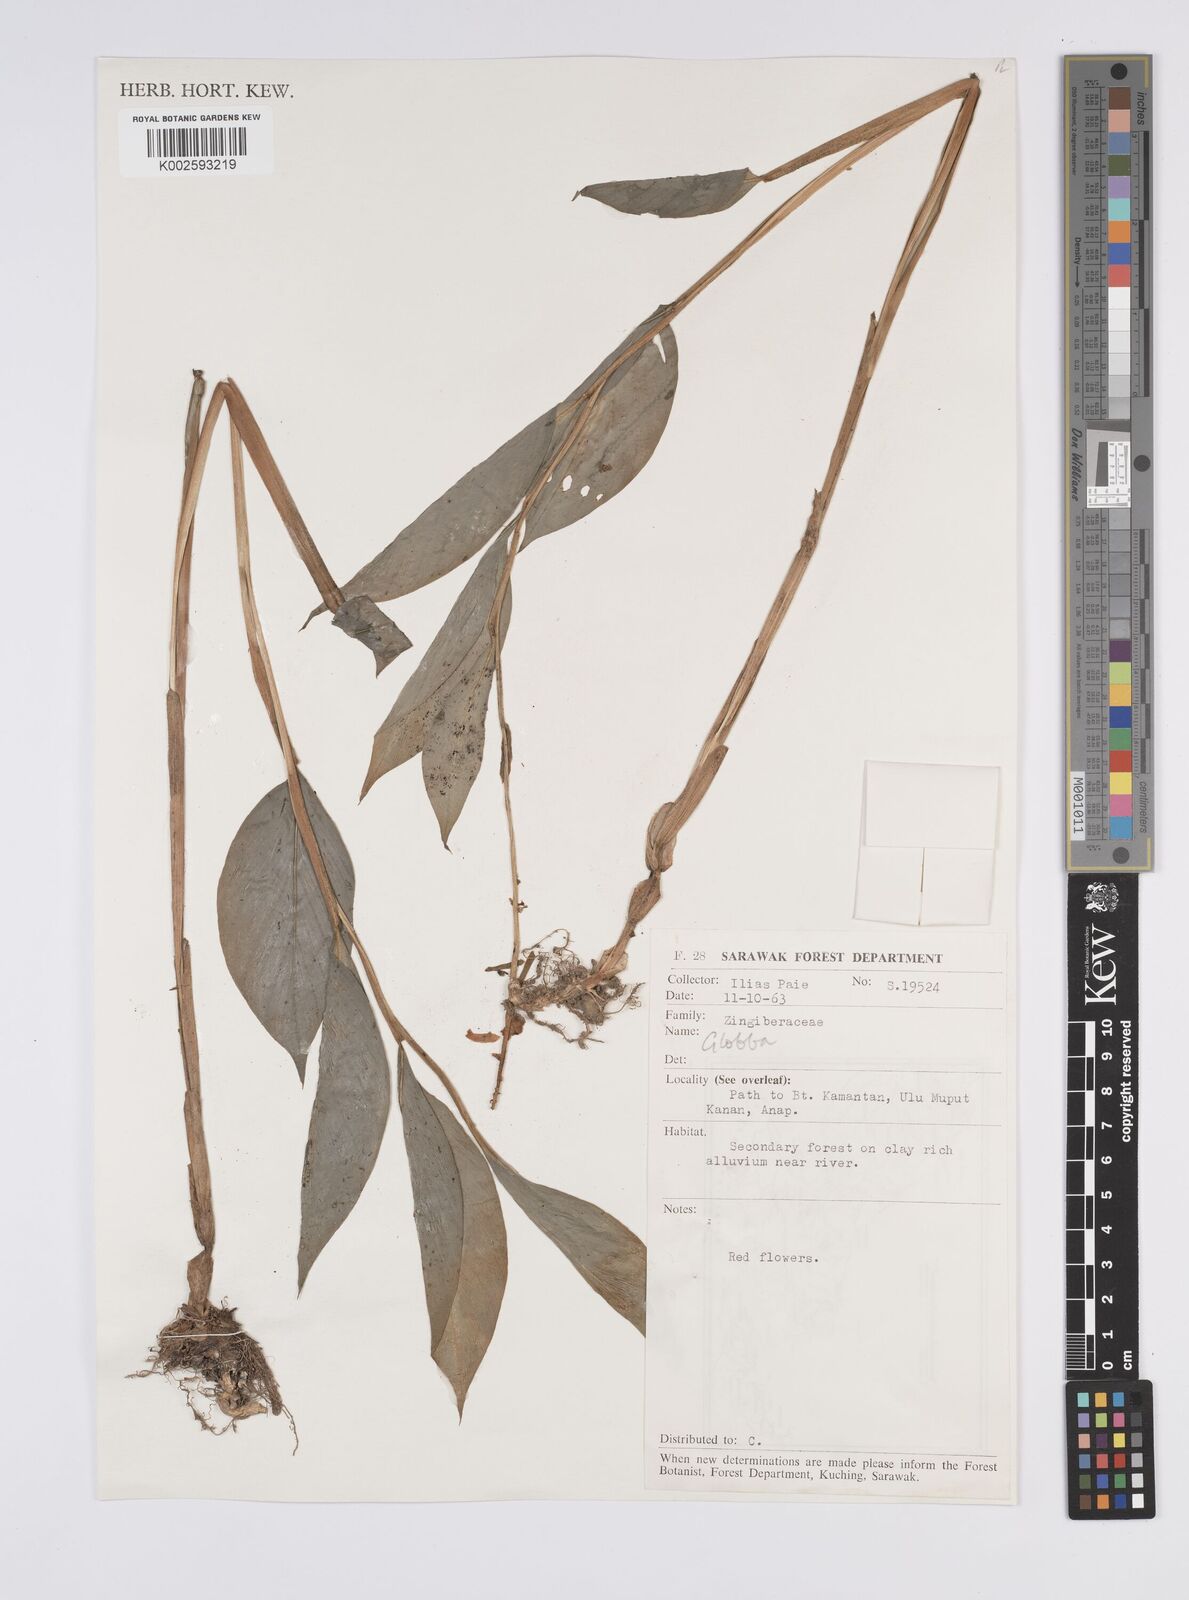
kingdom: Plantae
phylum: Tracheophyta
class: Liliopsida
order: Zingiberales
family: Zingiberaceae
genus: Globba
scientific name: Globba
